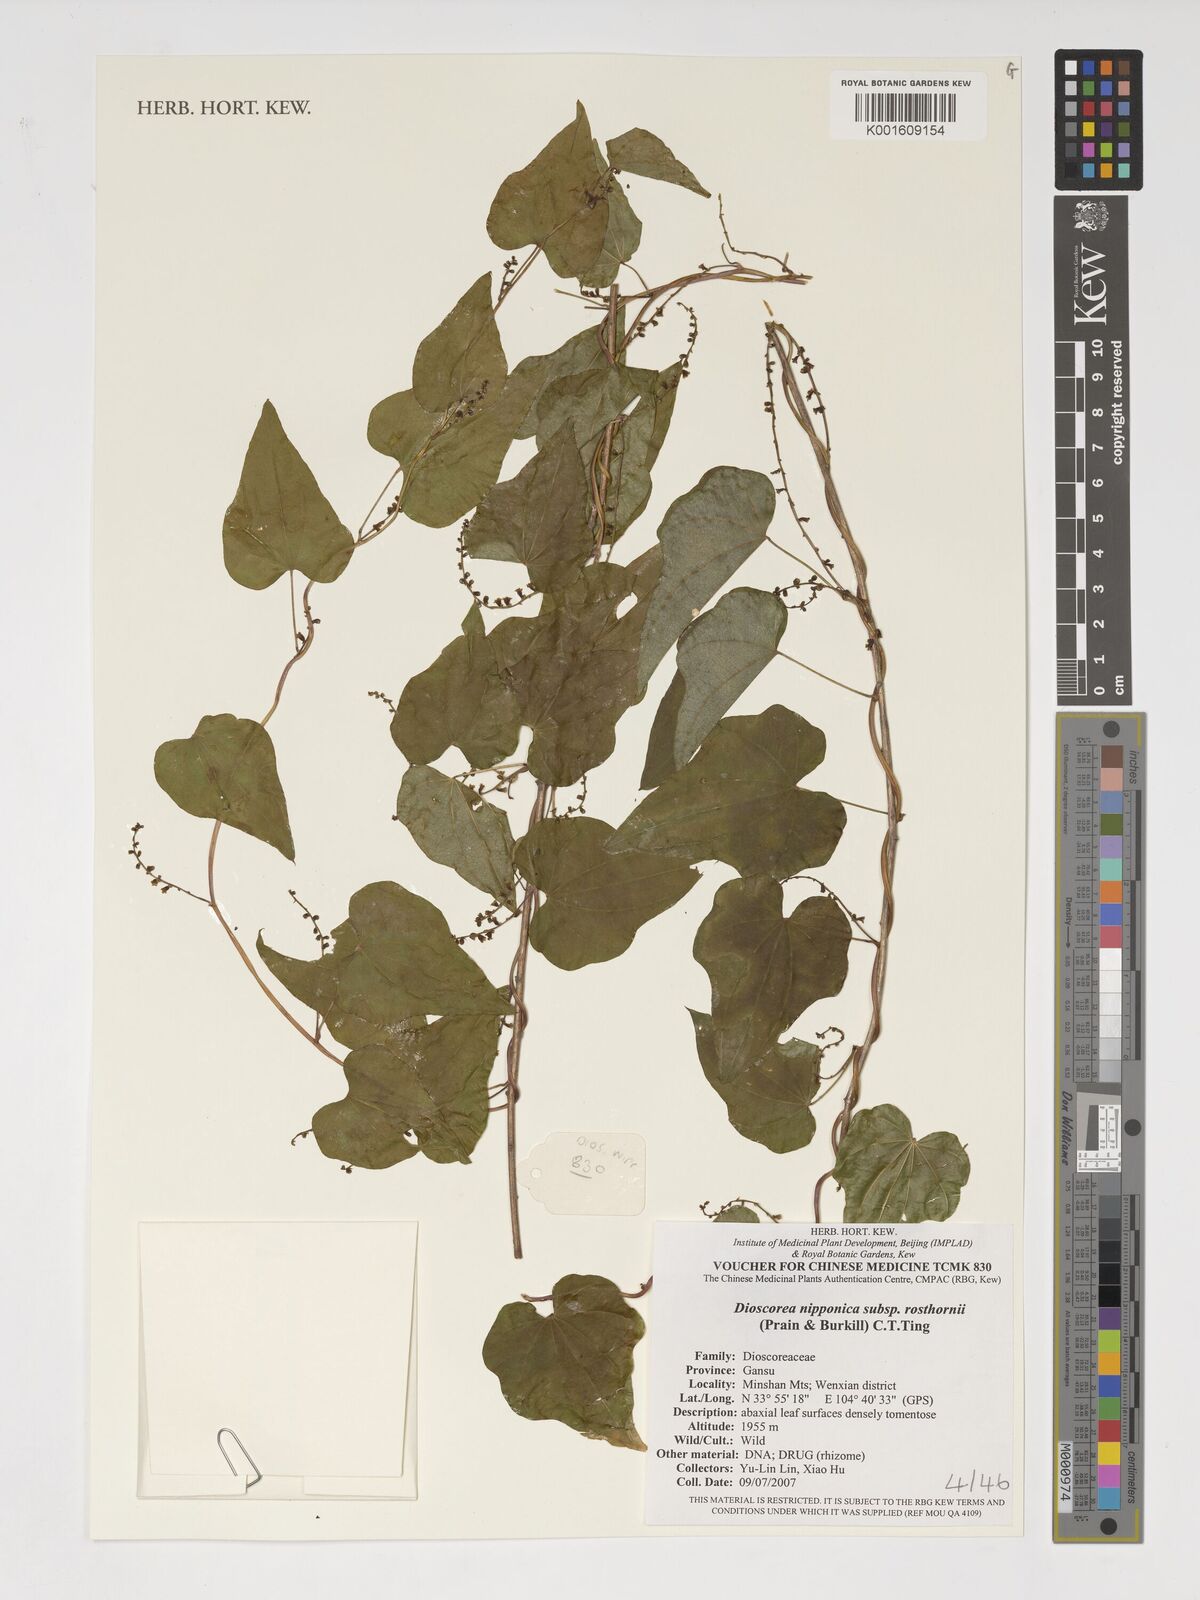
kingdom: Plantae
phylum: Tracheophyta
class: Liliopsida
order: Dioscoreales
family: Dioscoreaceae
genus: Dioscorea
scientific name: Dioscorea nipponica
